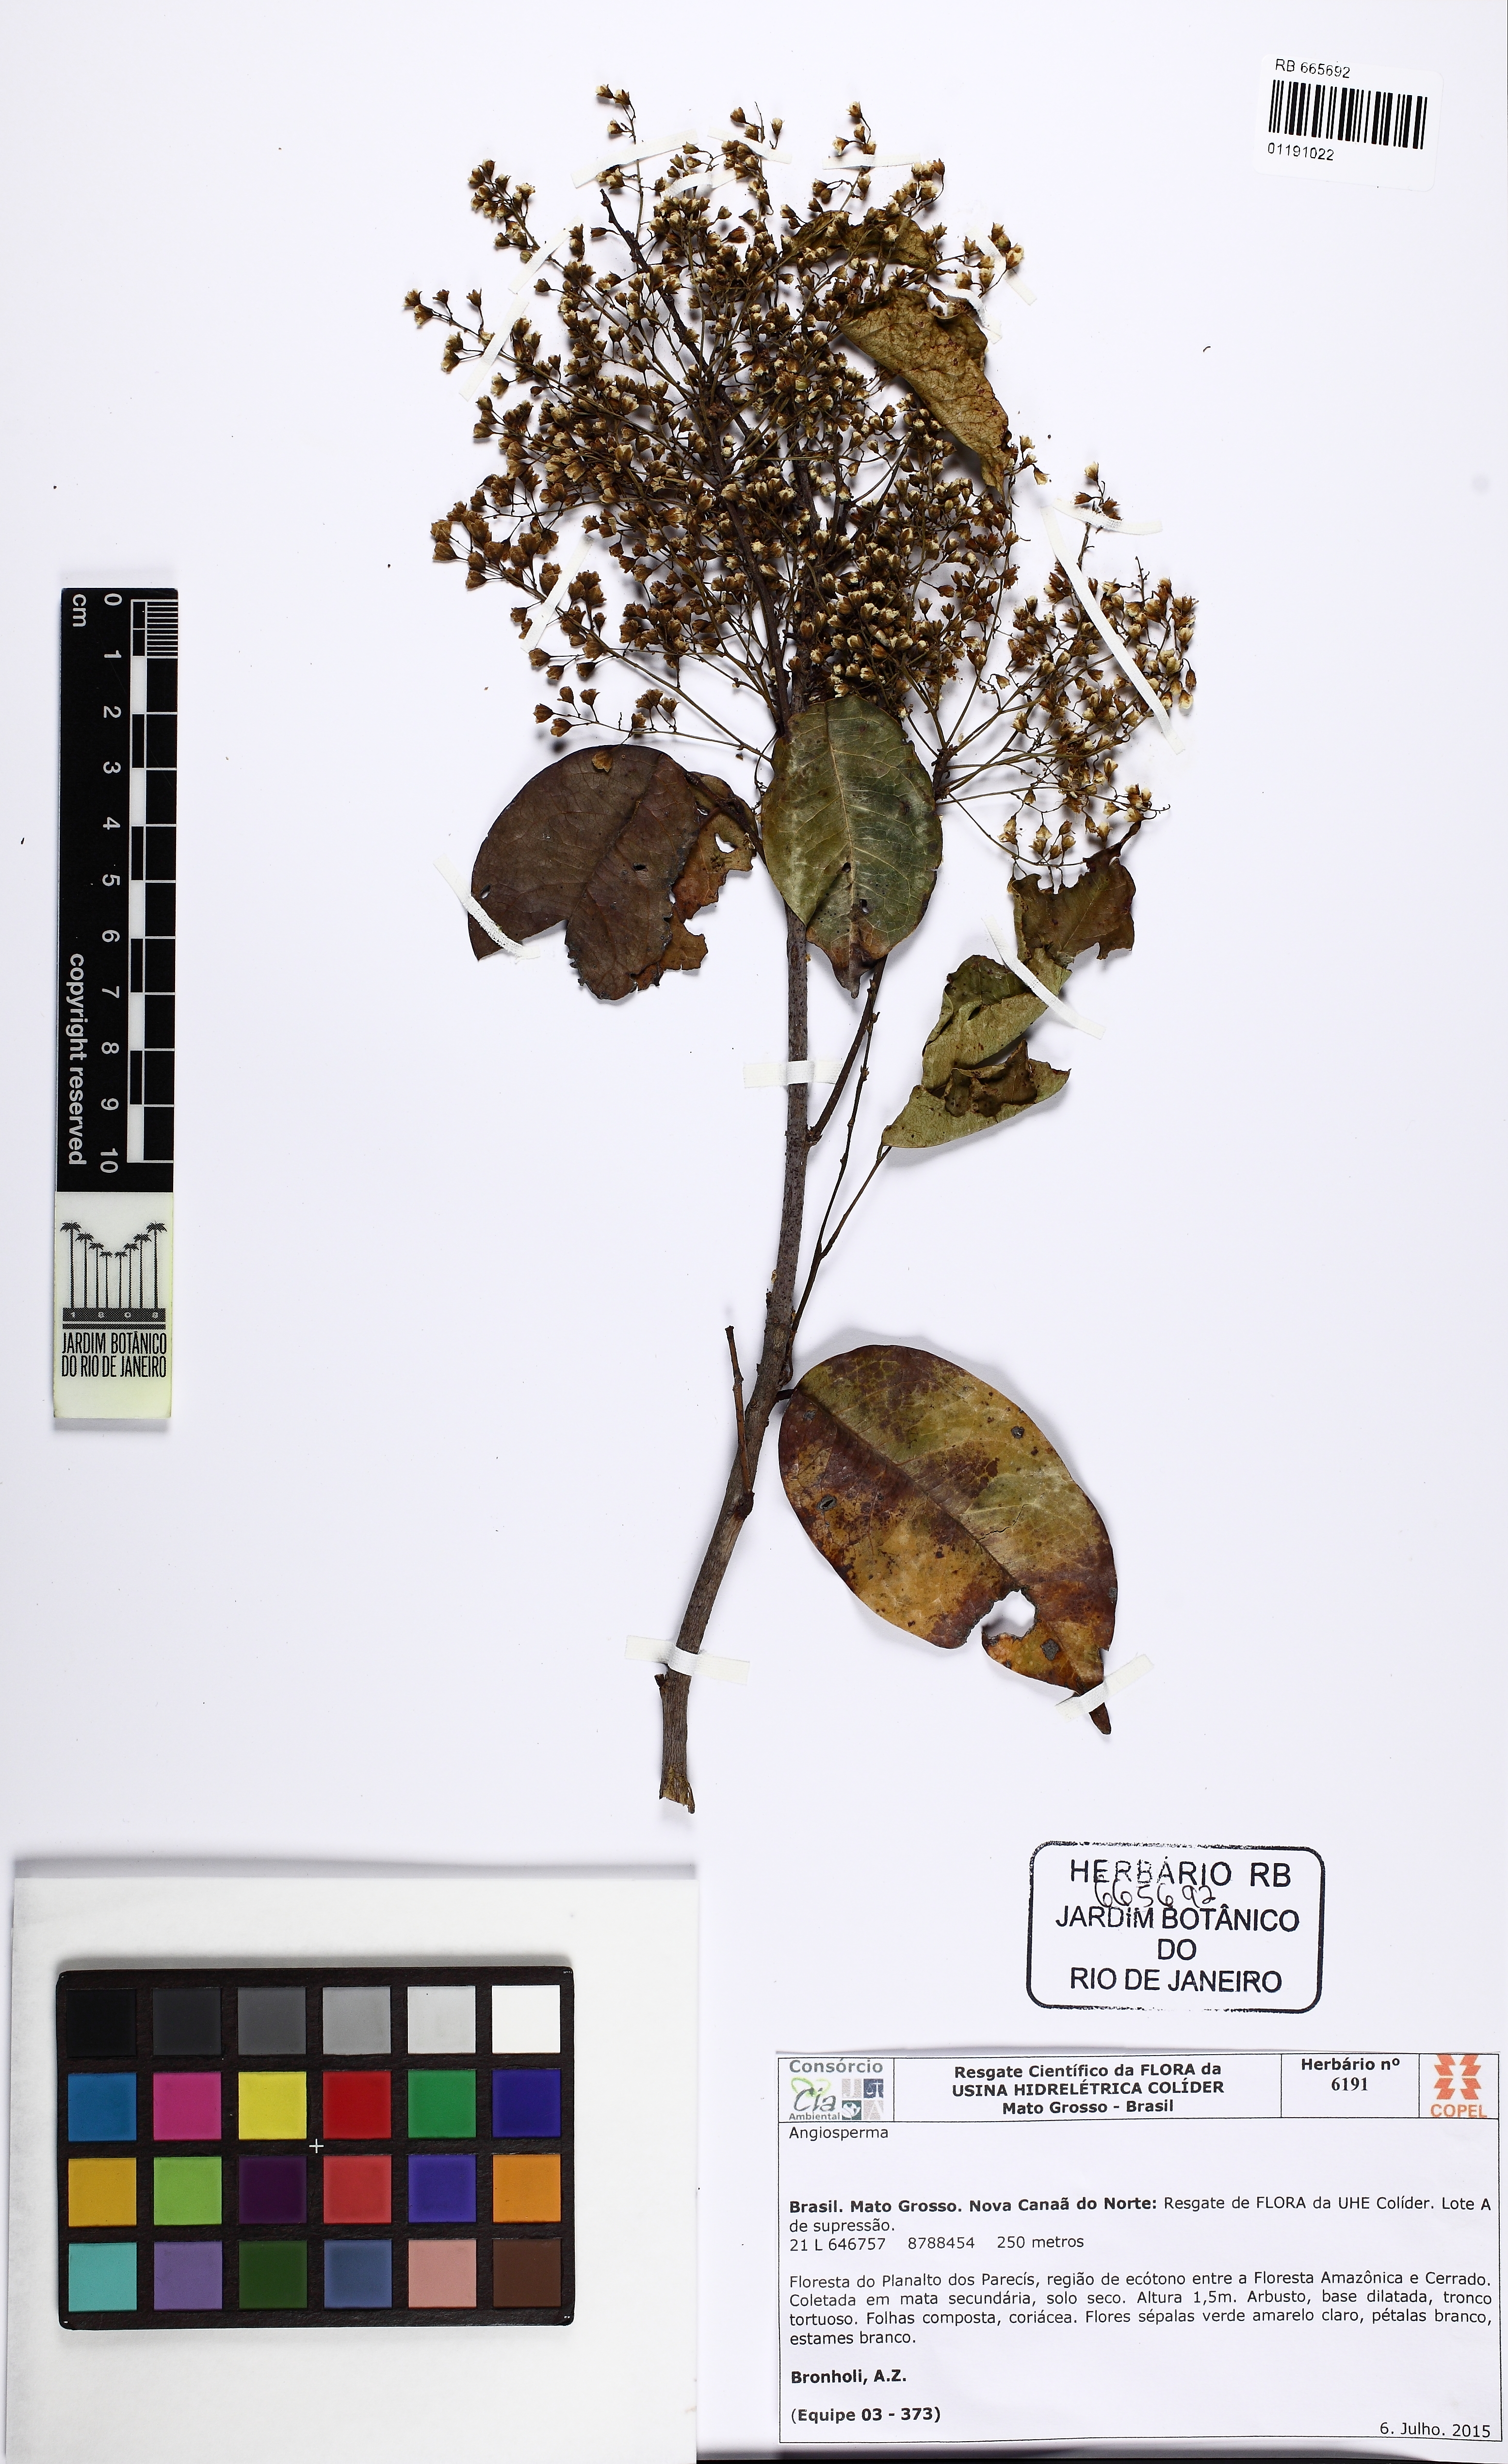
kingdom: Plantae
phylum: Tracheophyta
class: Magnoliopsida
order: Oxalidales
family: Connaraceae
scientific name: Connaraceae
